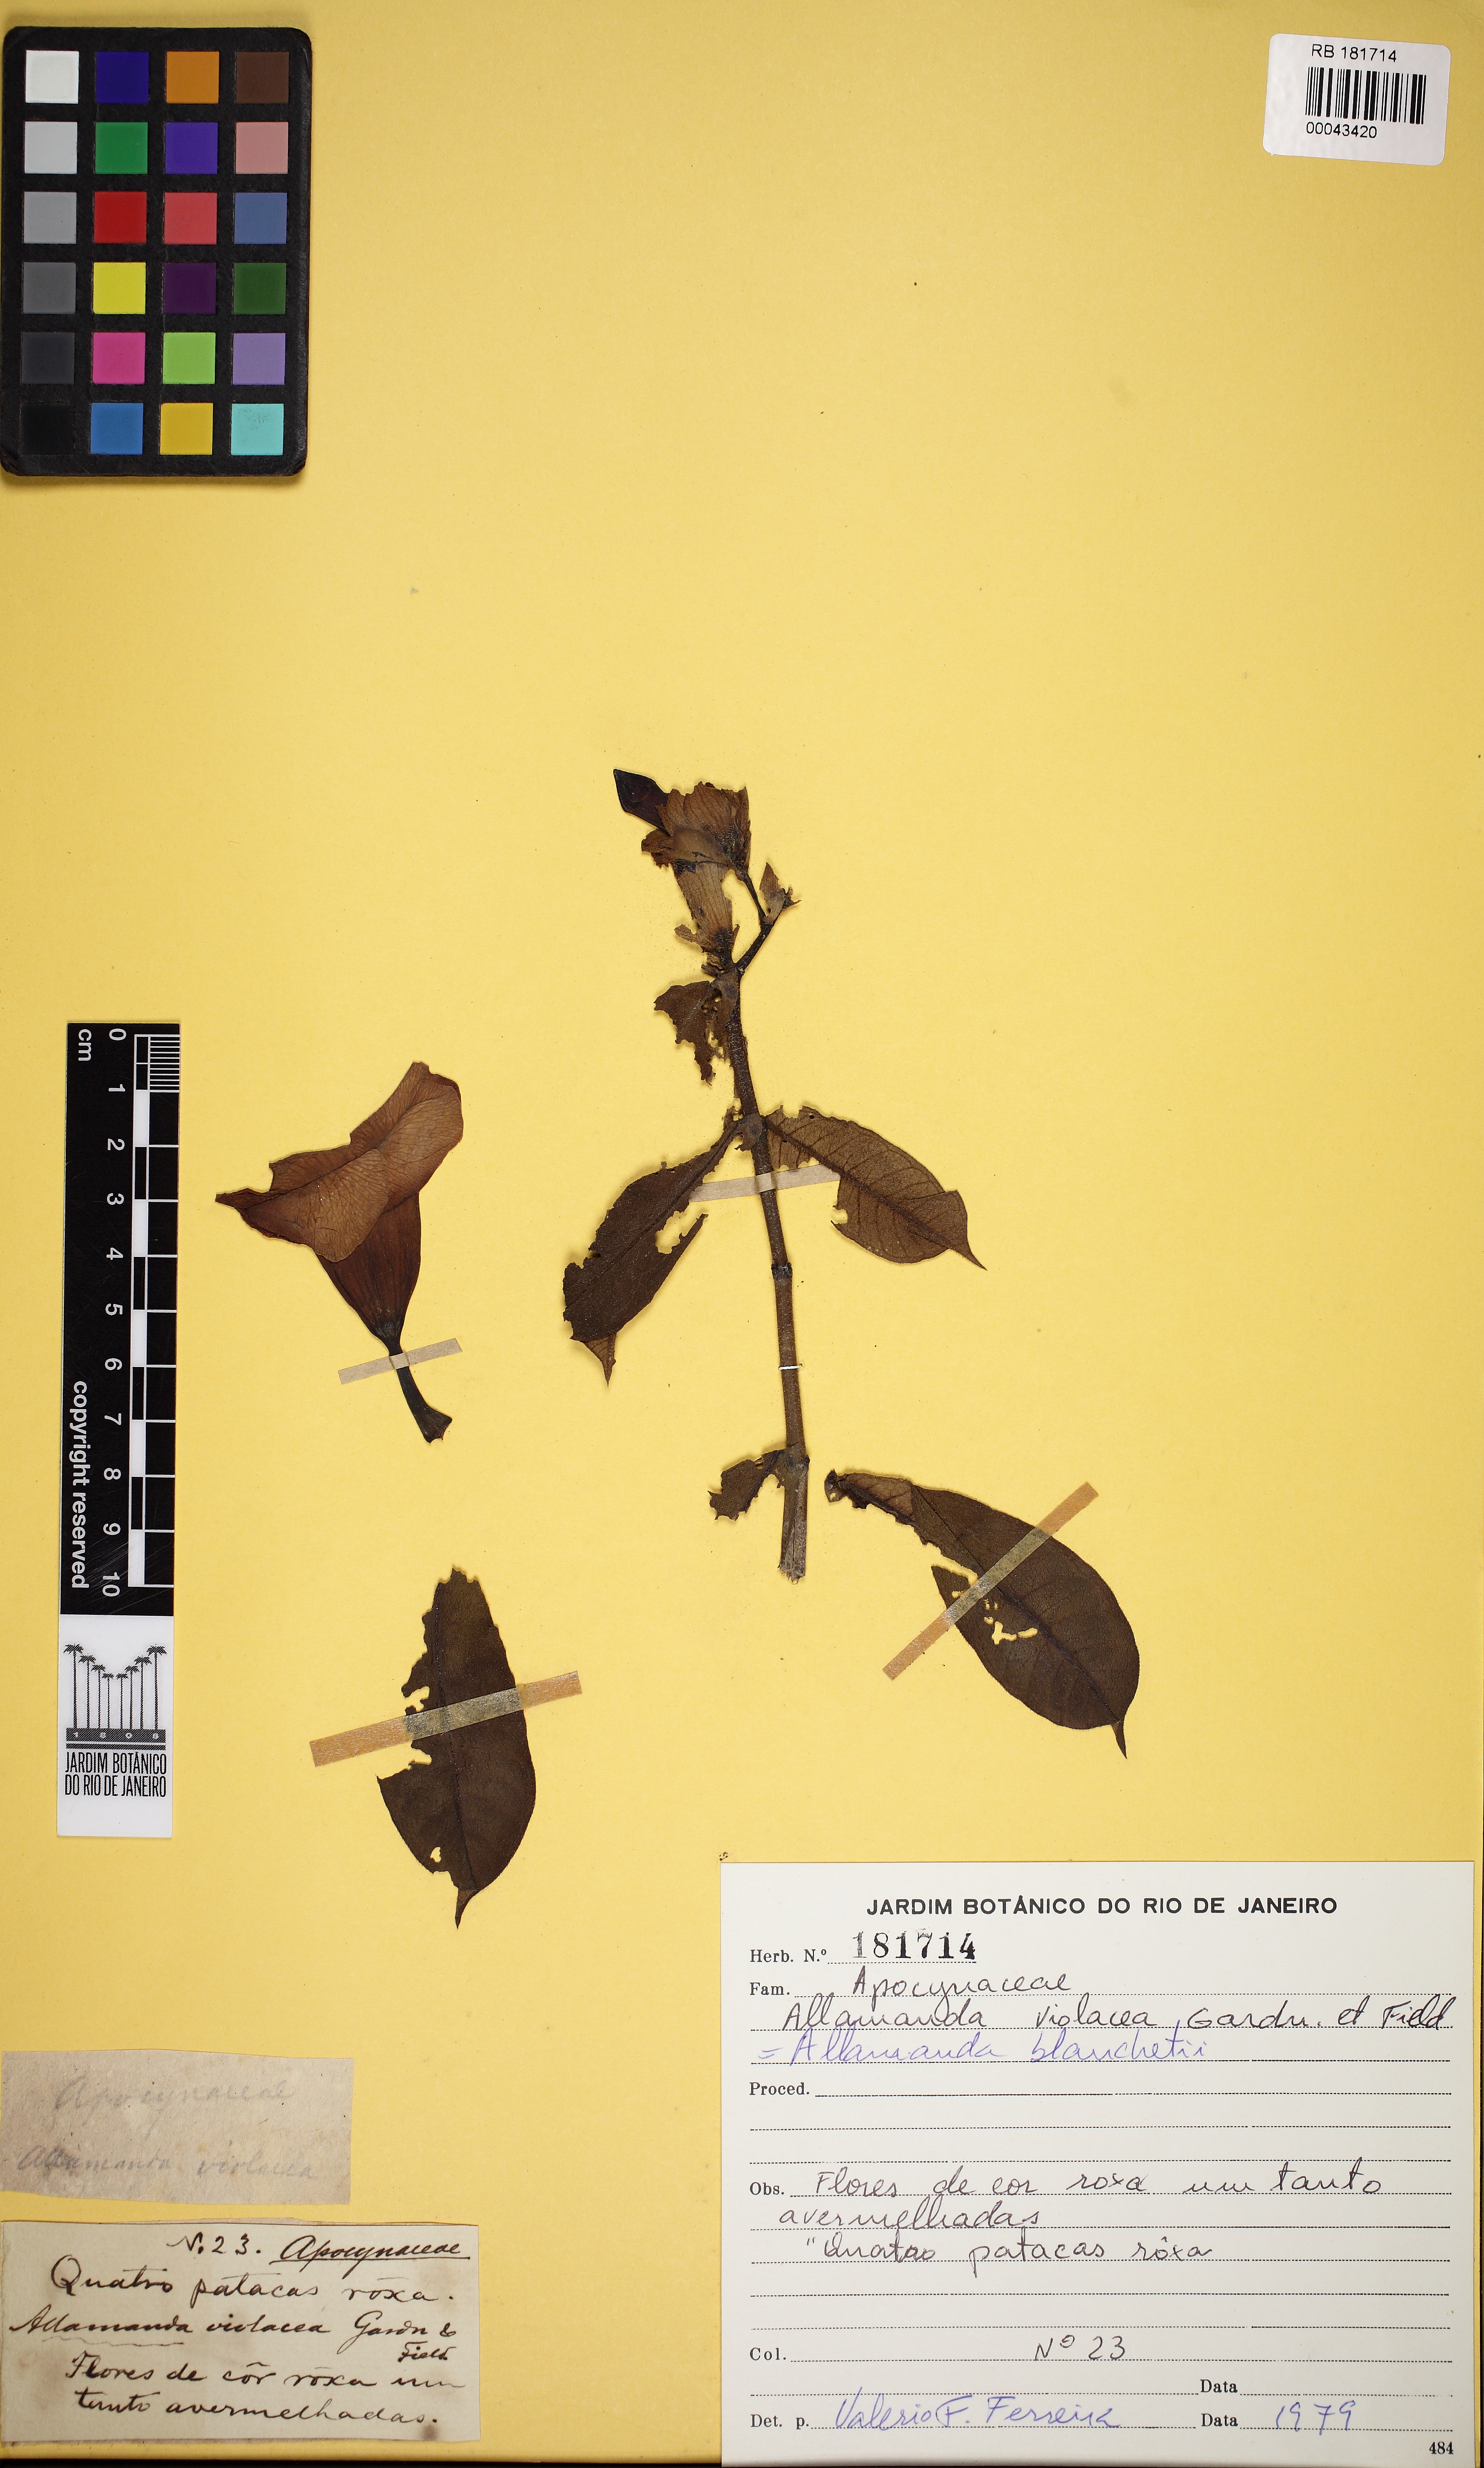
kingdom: Plantae
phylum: Tracheophyta
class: Magnoliopsida
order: Gentianales
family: Apocynaceae
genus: Allamanda
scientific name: Allamanda blanchetii
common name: Purple allamanda
